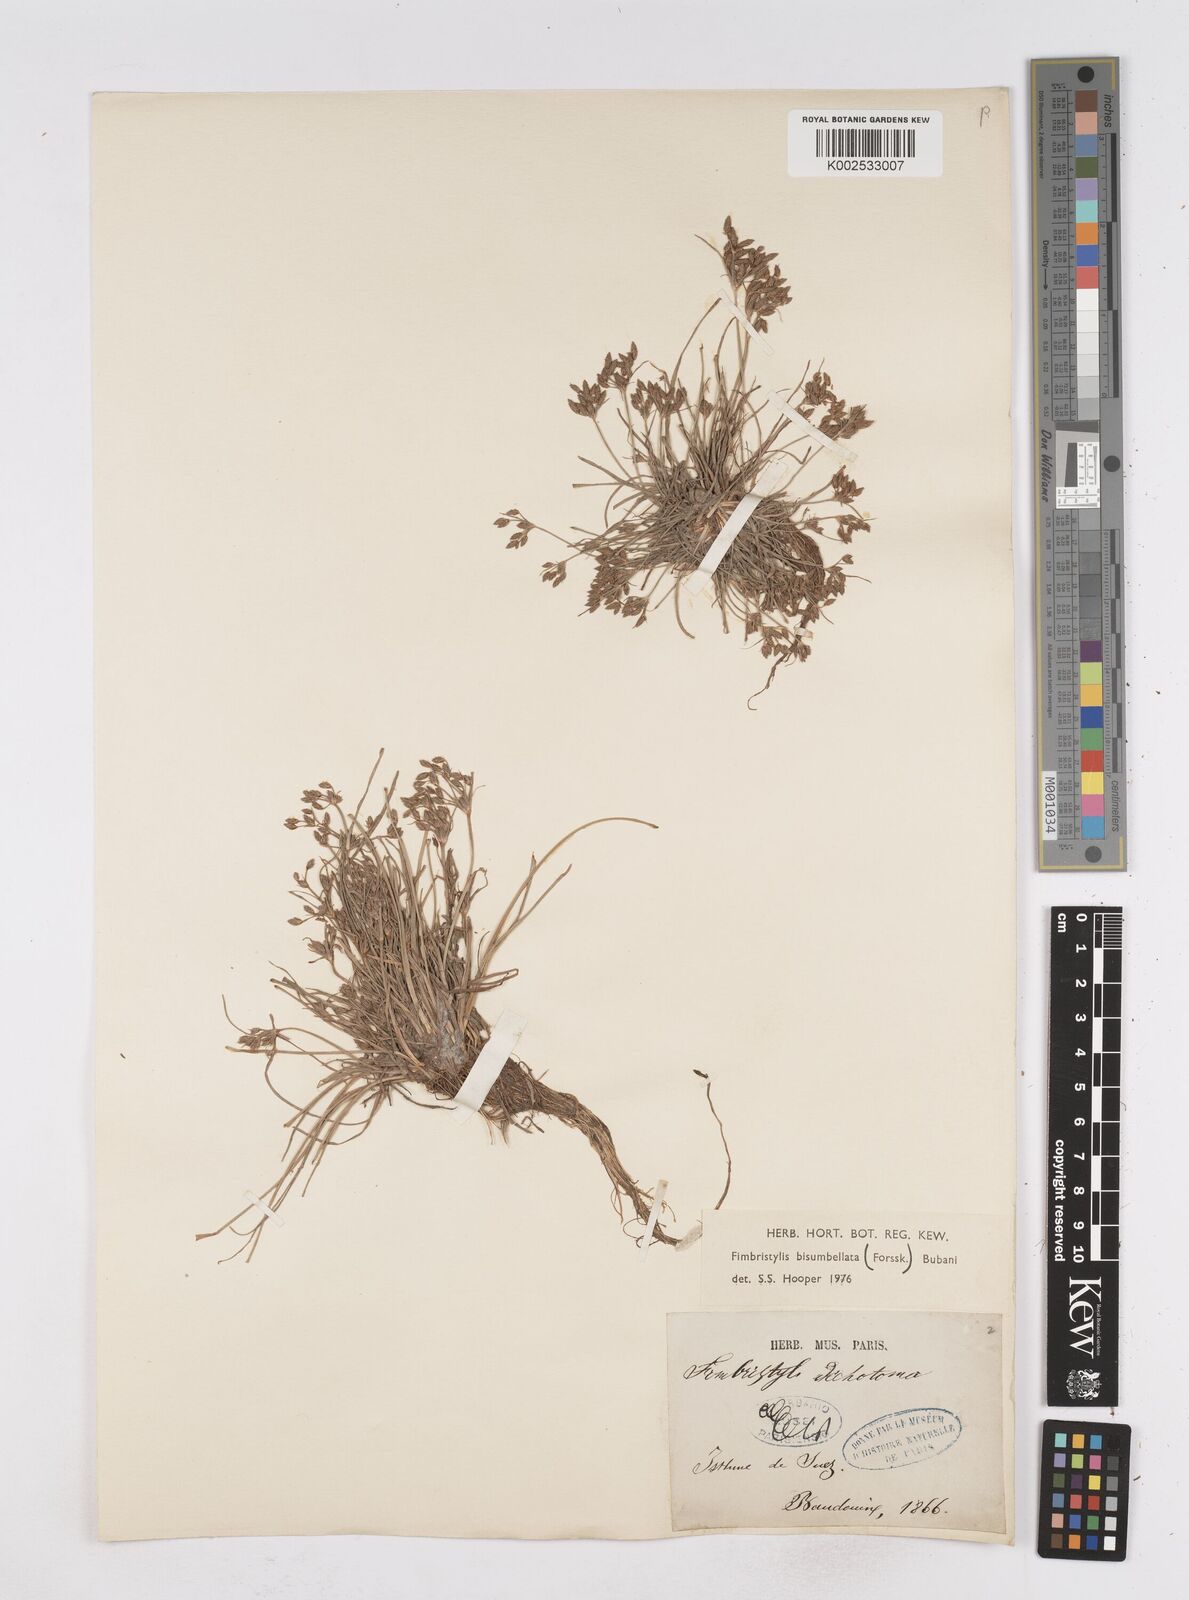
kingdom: Plantae
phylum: Tracheophyta
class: Liliopsida
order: Poales
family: Cyperaceae
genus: Fimbristylis
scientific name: Fimbristylis bisumbellata
